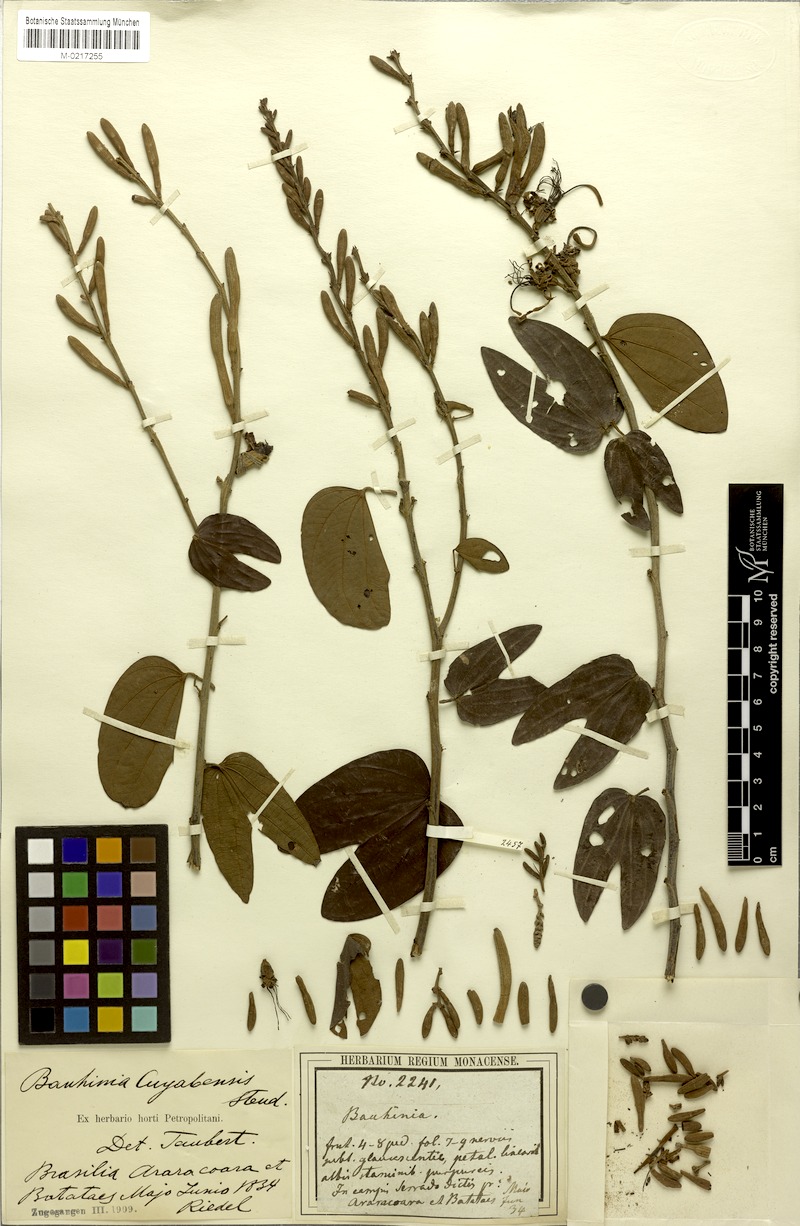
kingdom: Plantae
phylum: Tracheophyta
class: Magnoliopsida
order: Fabales
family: Fabaceae
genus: Bauhinia
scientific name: Bauhinia ungulata
